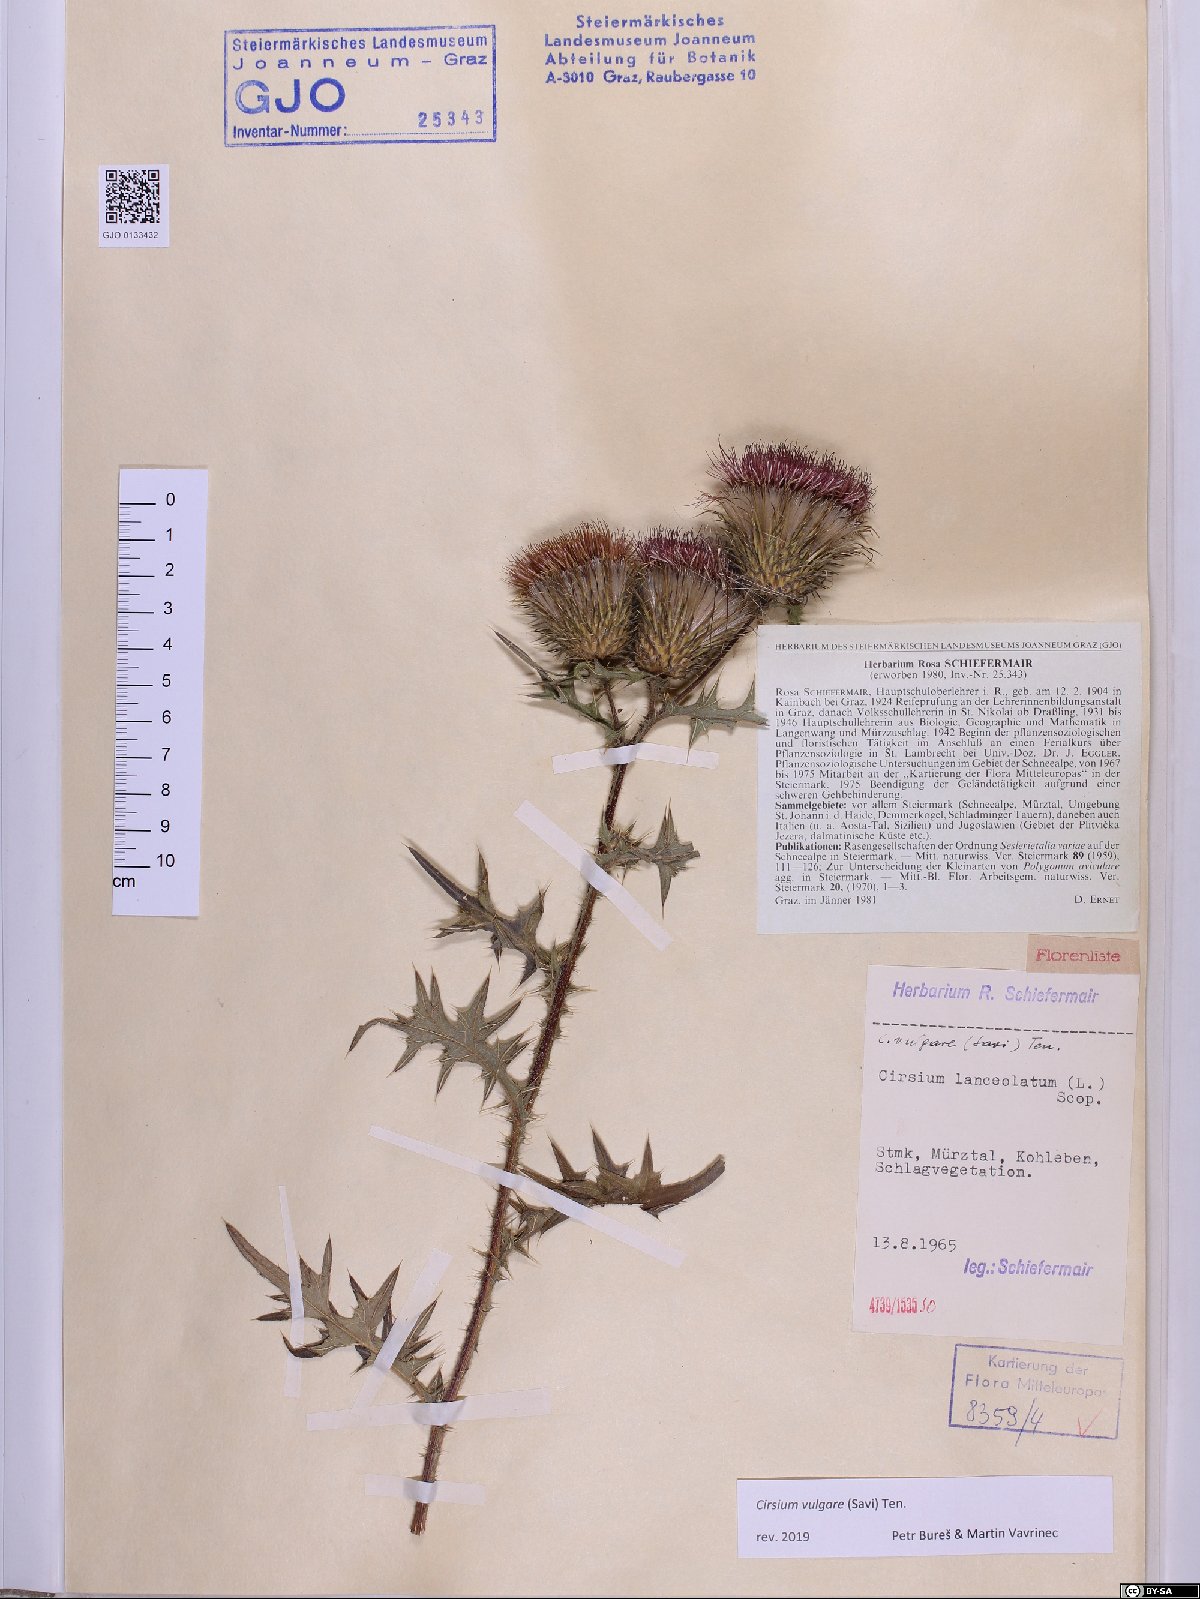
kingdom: Plantae
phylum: Tracheophyta
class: Magnoliopsida
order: Asterales
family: Asteraceae
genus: Cirsium
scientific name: Cirsium vulgare
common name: Bull thistle
